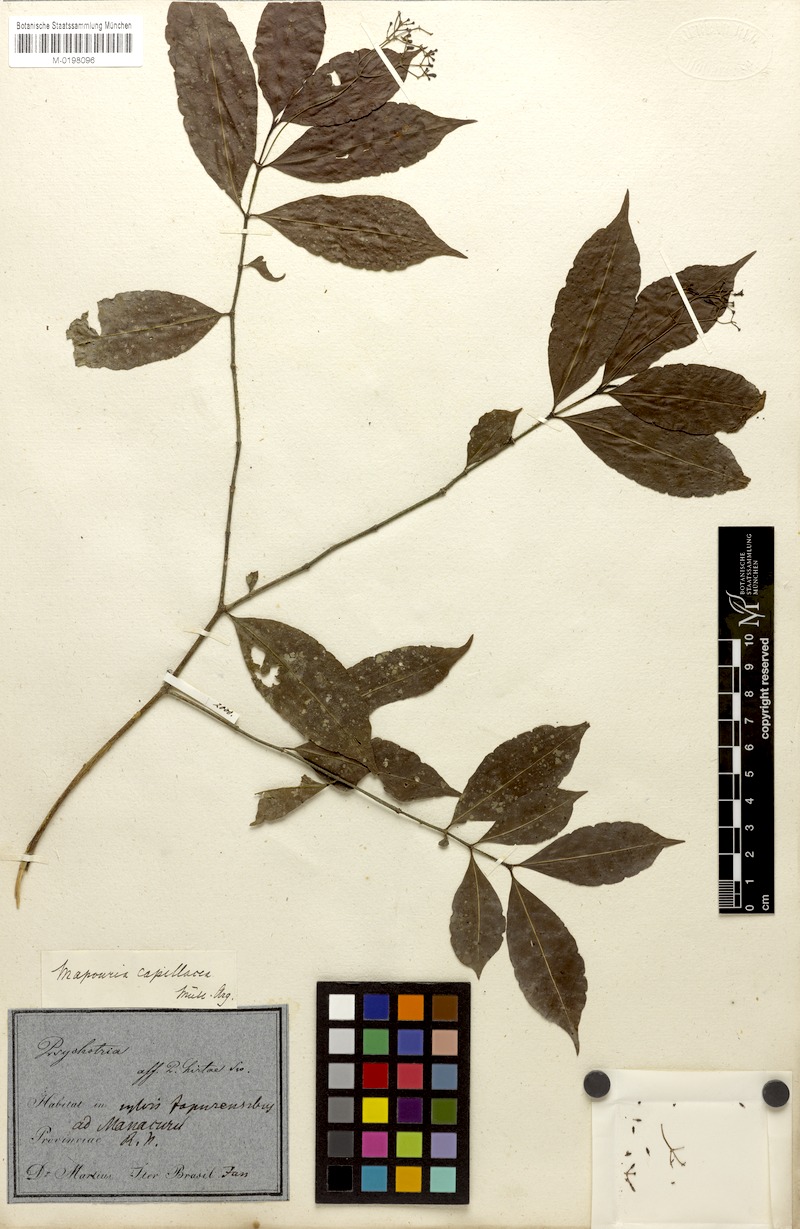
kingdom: Plantae
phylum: Tracheophyta
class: Magnoliopsida
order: Gentianales
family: Rubiaceae
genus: Psychotria
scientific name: Psychotria capillacea
